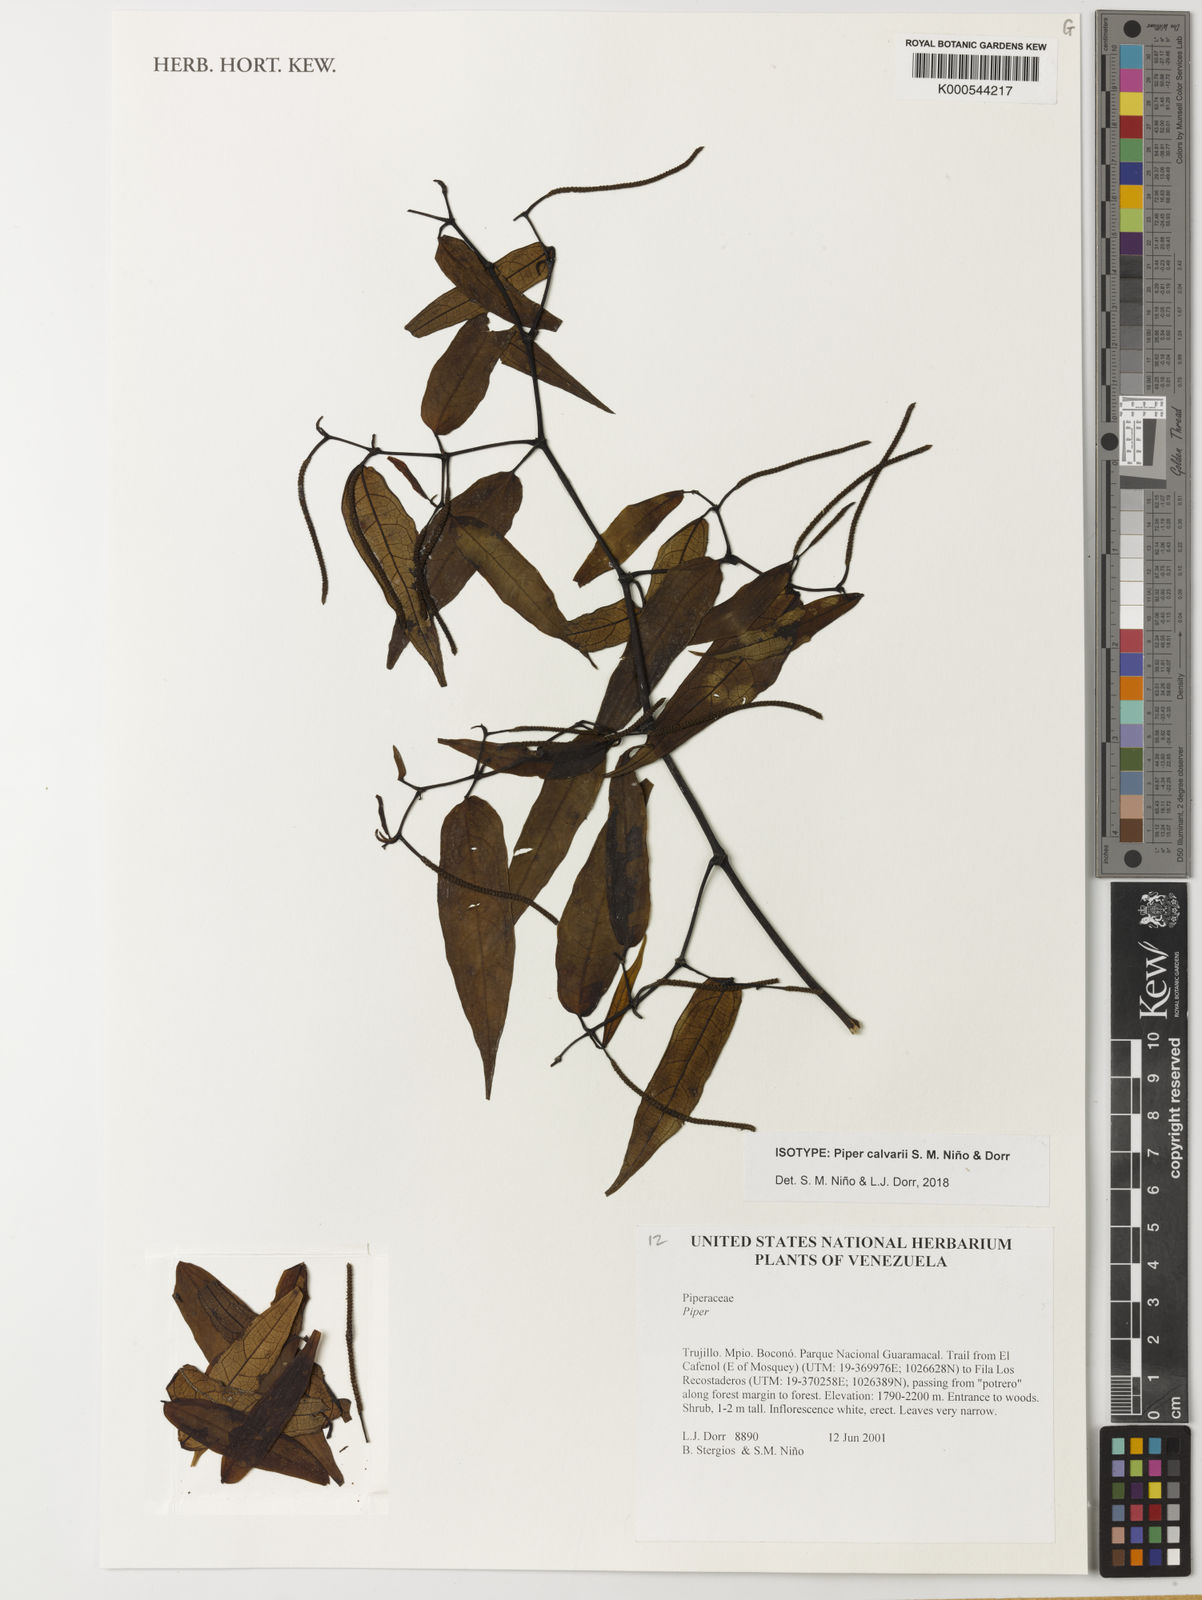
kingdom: Plantae
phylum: Tracheophyta
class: Magnoliopsida
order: Piperales
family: Piperaceae
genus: Piper
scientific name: Piper
